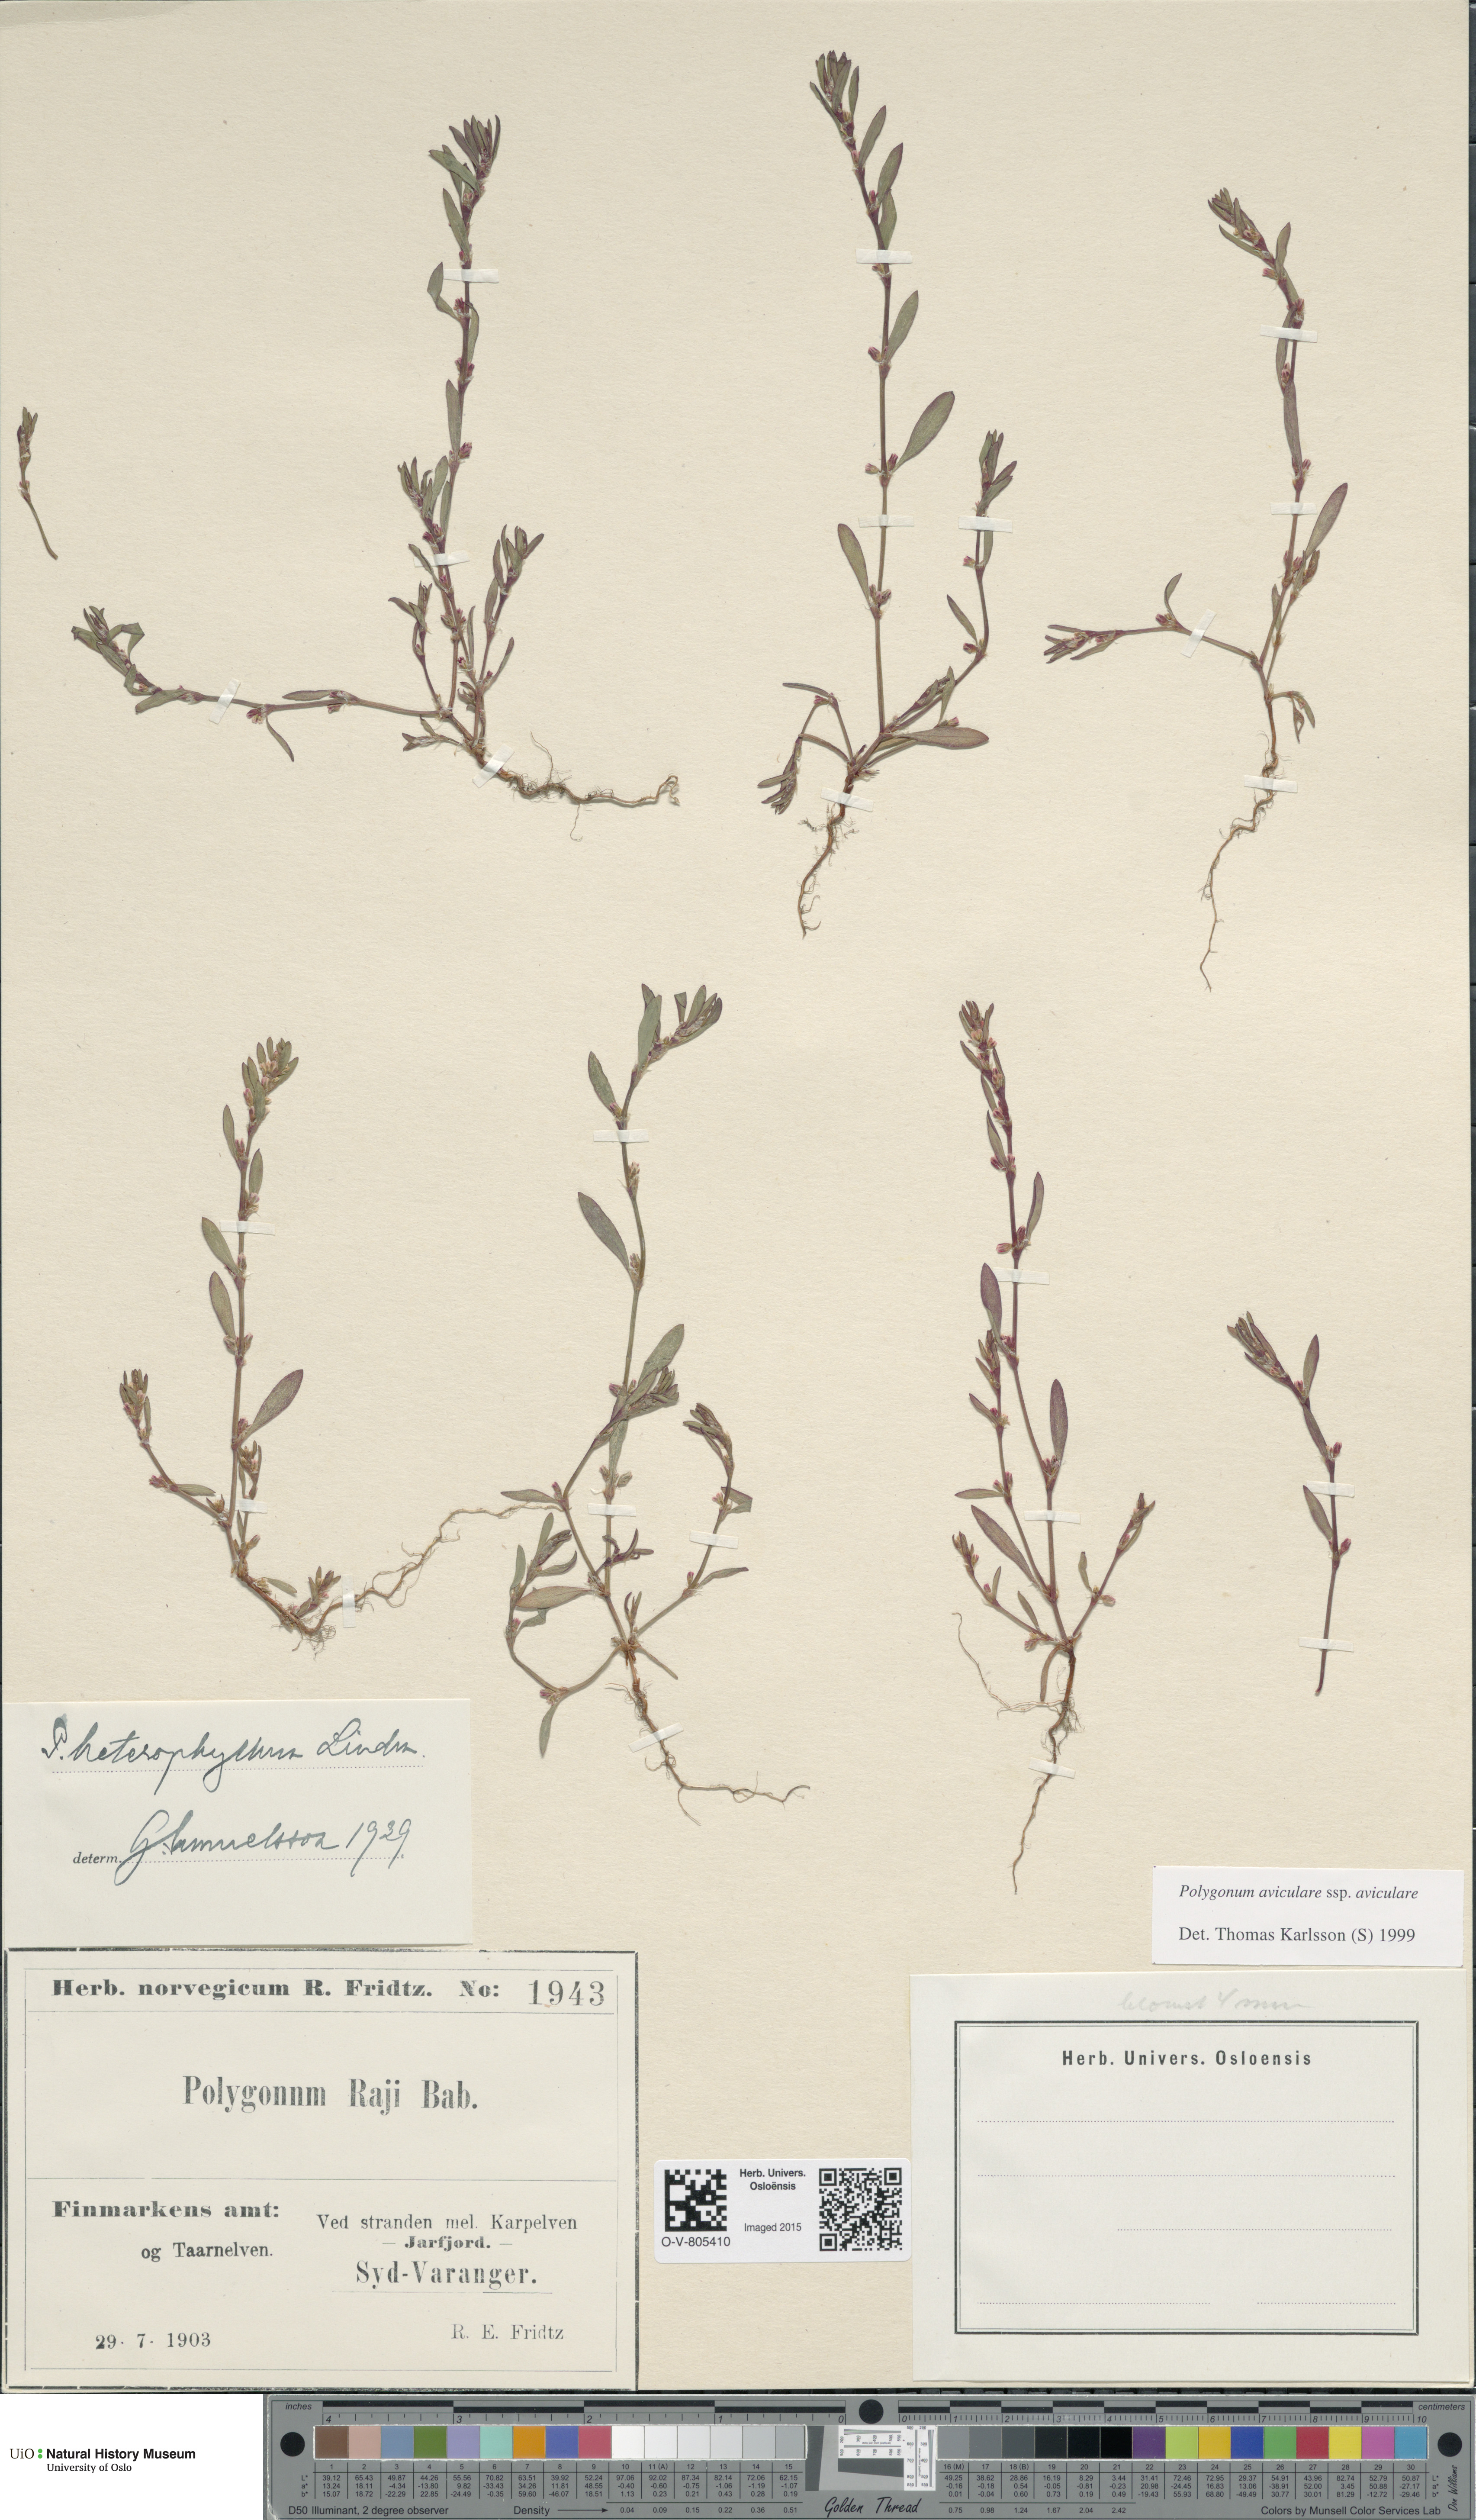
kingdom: Plantae
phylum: Tracheophyta
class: Magnoliopsida
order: Caryophyllales
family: Polygonaceae
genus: Polygonum
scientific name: Polygonum aviculare
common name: Prostrate knotweed
